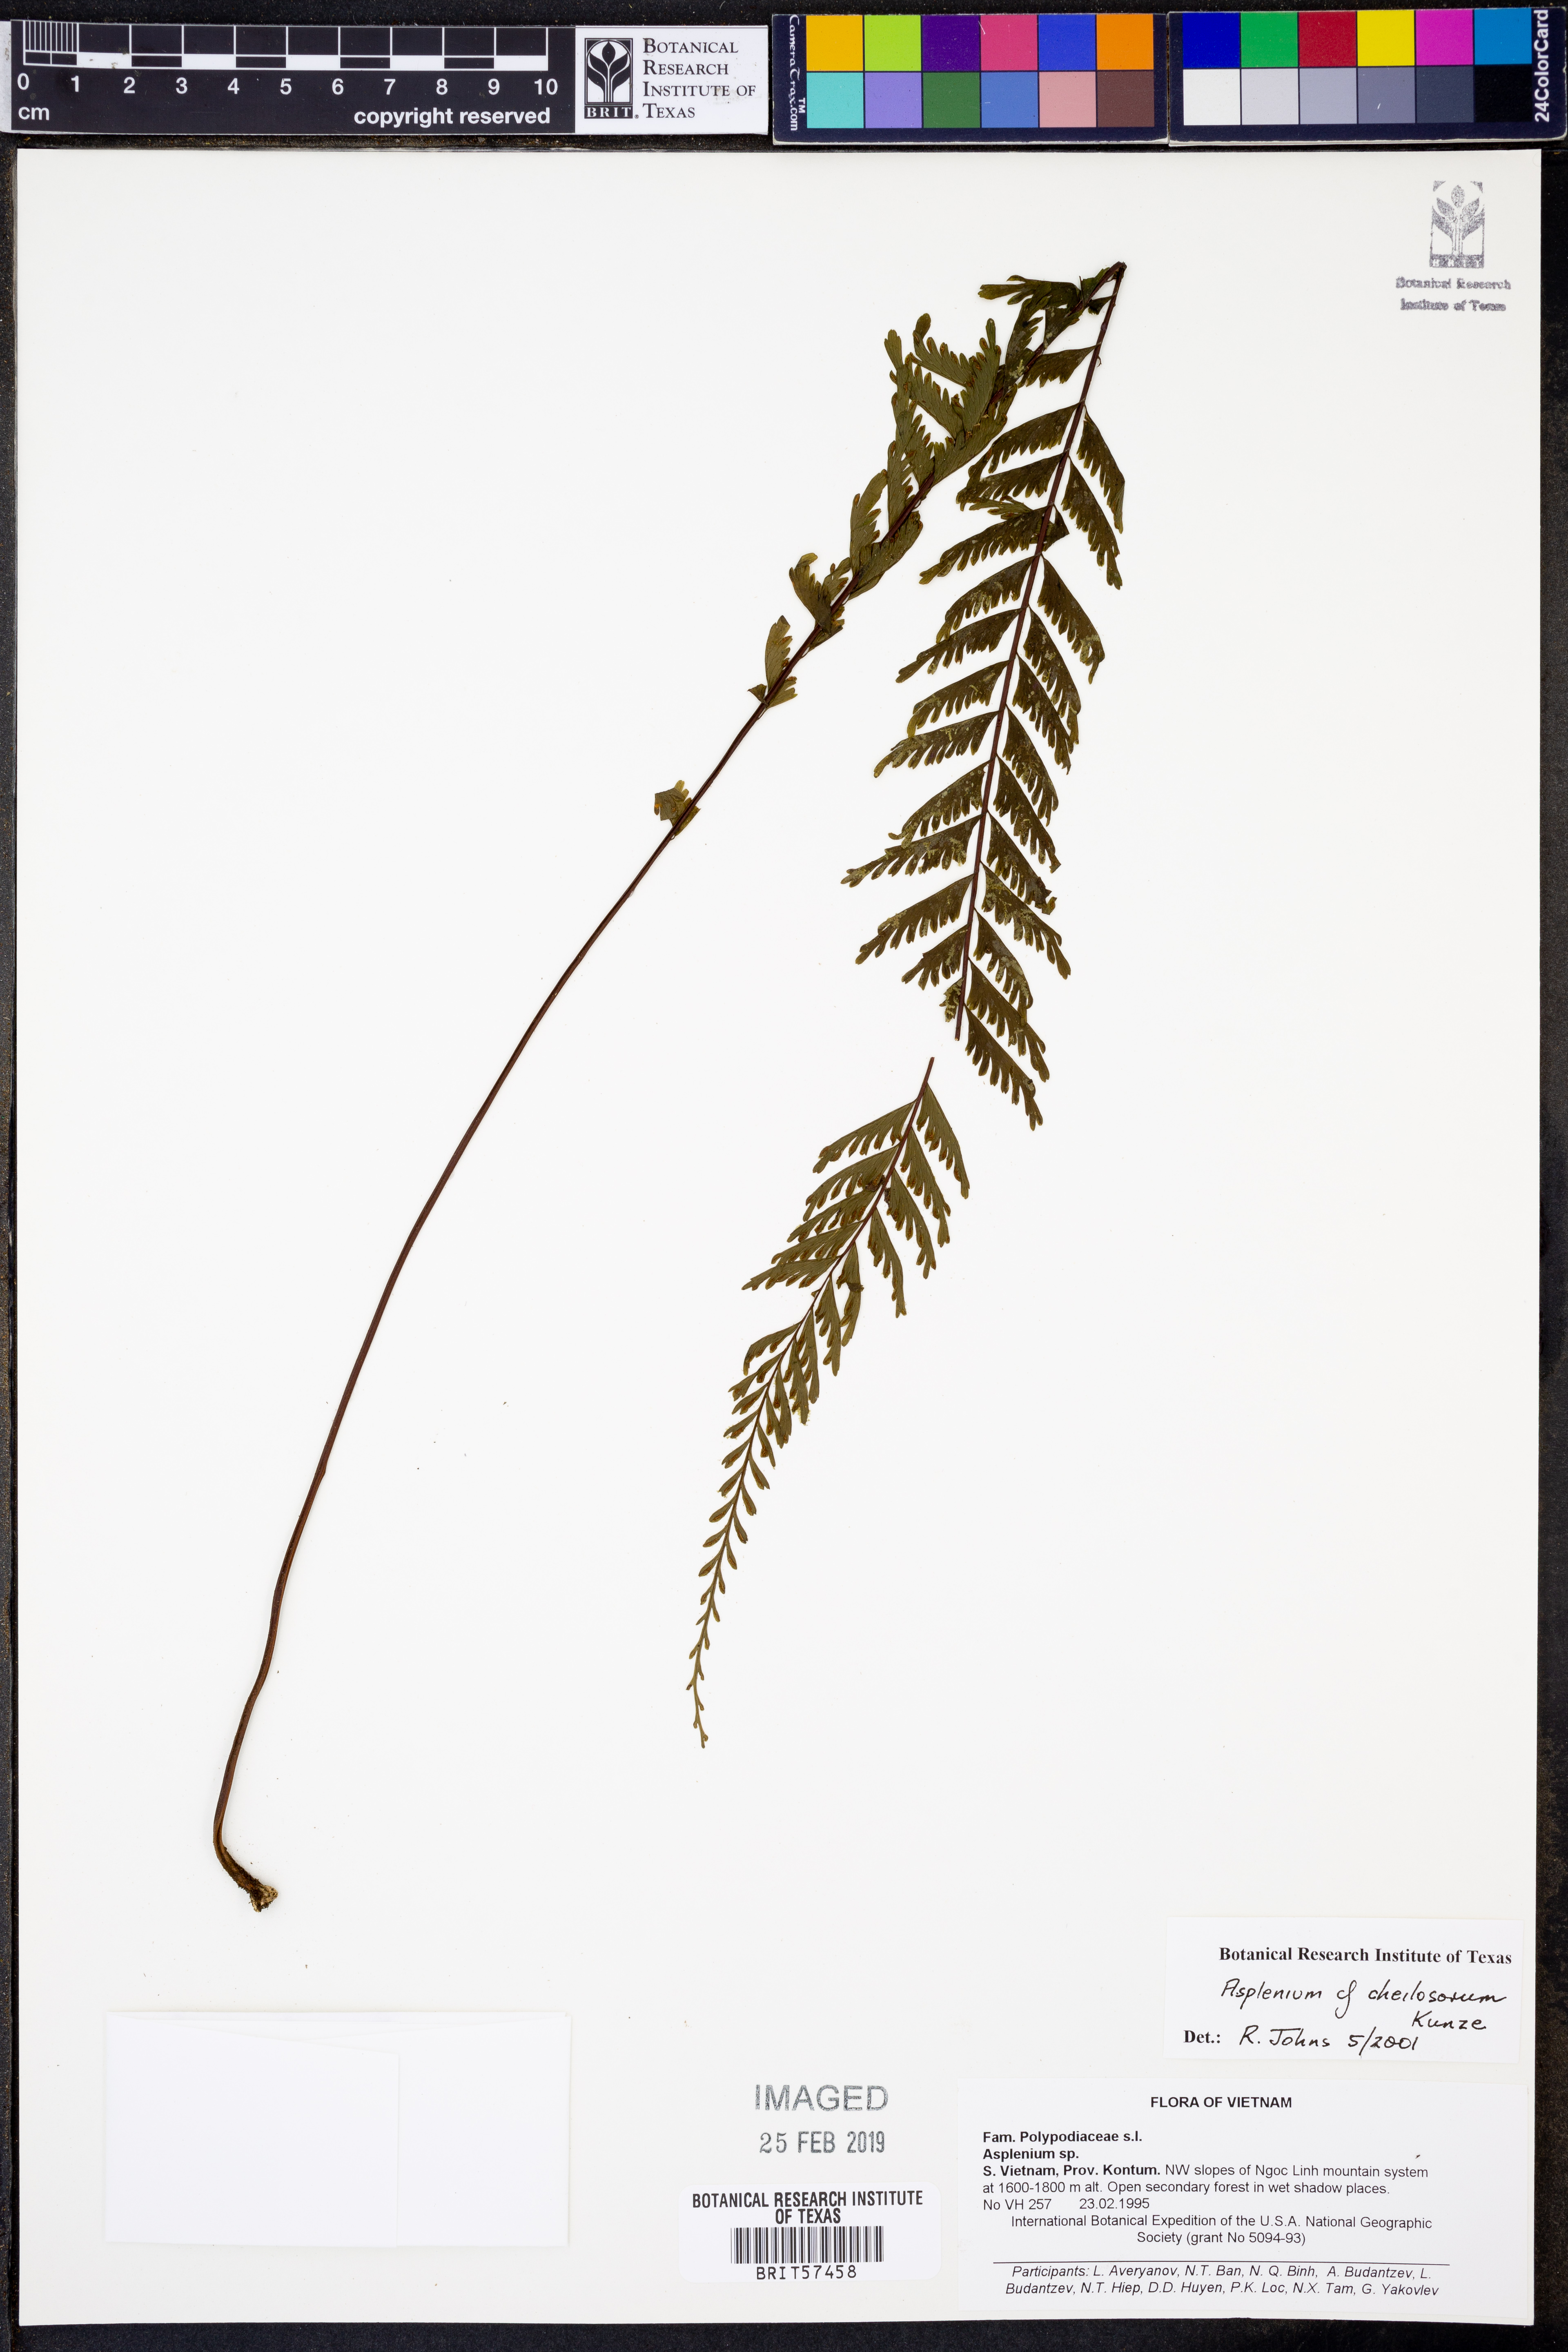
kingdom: Plantae
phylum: Tracheophyta
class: Polypodiopsida
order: Polypodiales
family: Aspleniaceae
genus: Hymenasplenium
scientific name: Hymenasplenium cheilosorum
